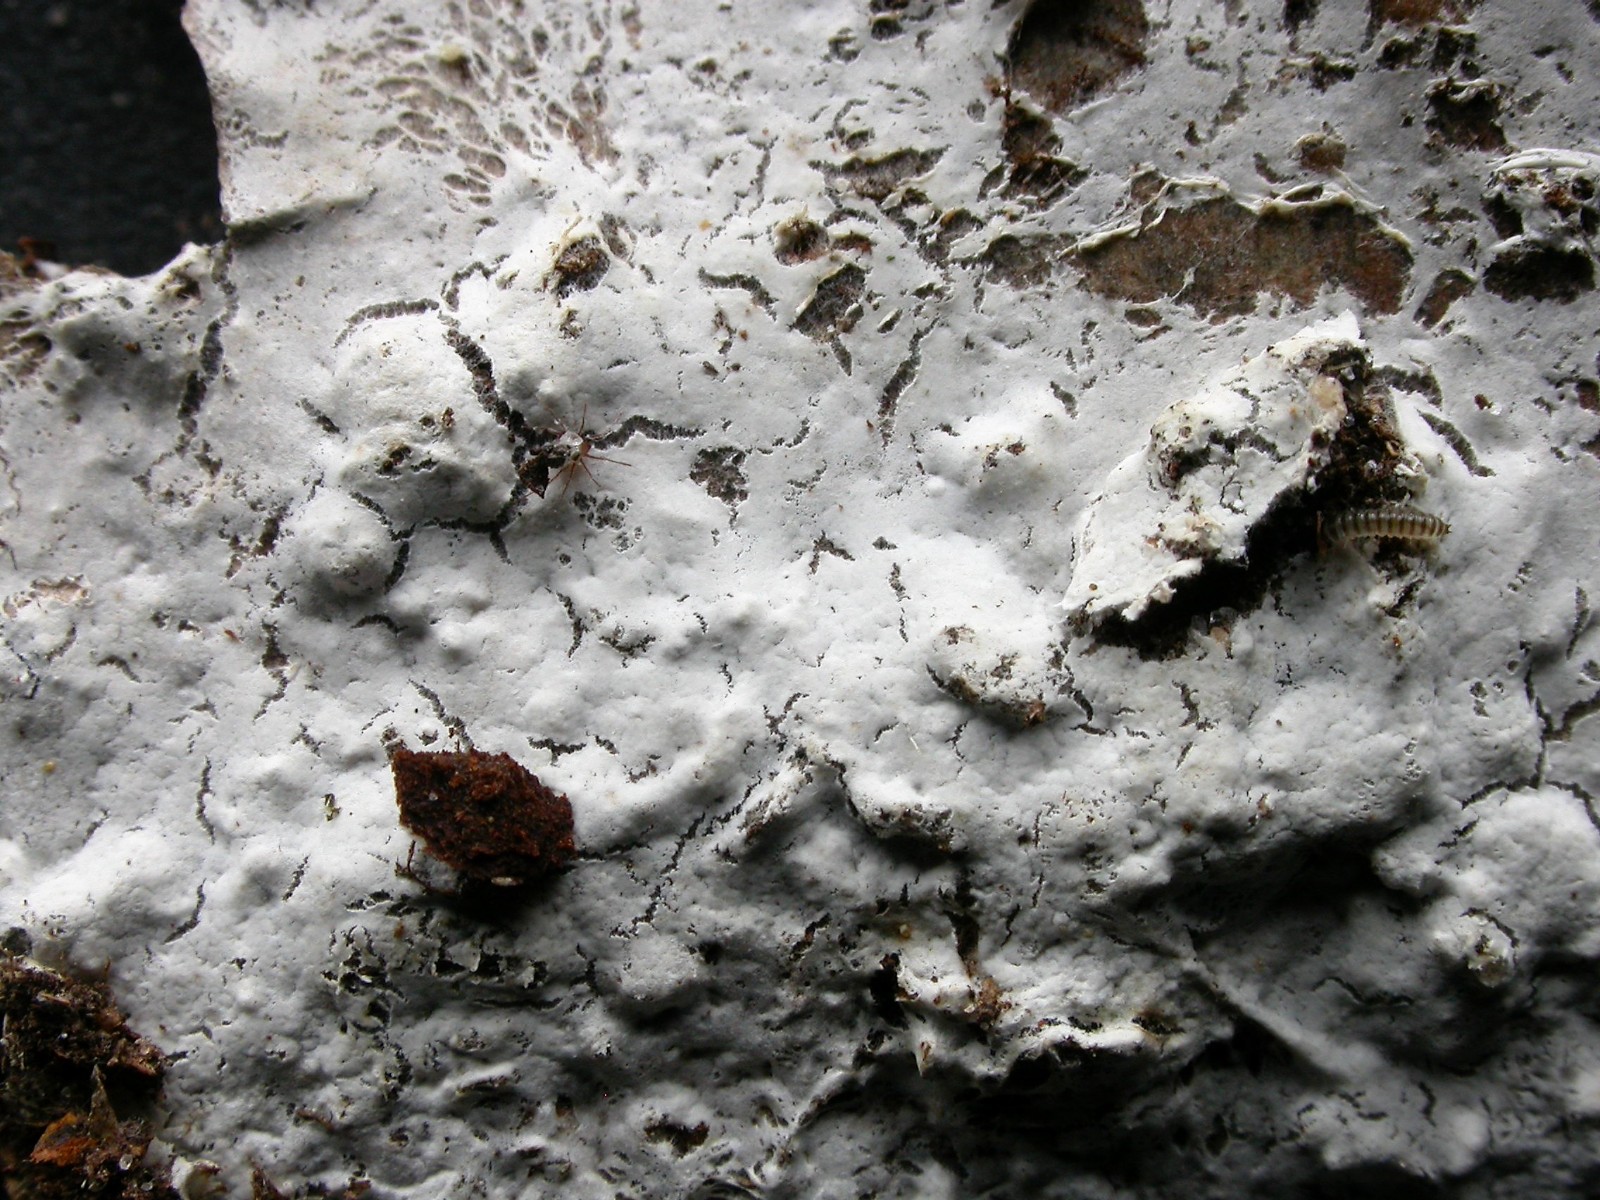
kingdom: Fungi
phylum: Basidiomycota
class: Agaricomycetes
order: Atheliales
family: Atheliaceae
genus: Athelia
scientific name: Athelia epiphylla
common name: almindelig barkhinde
